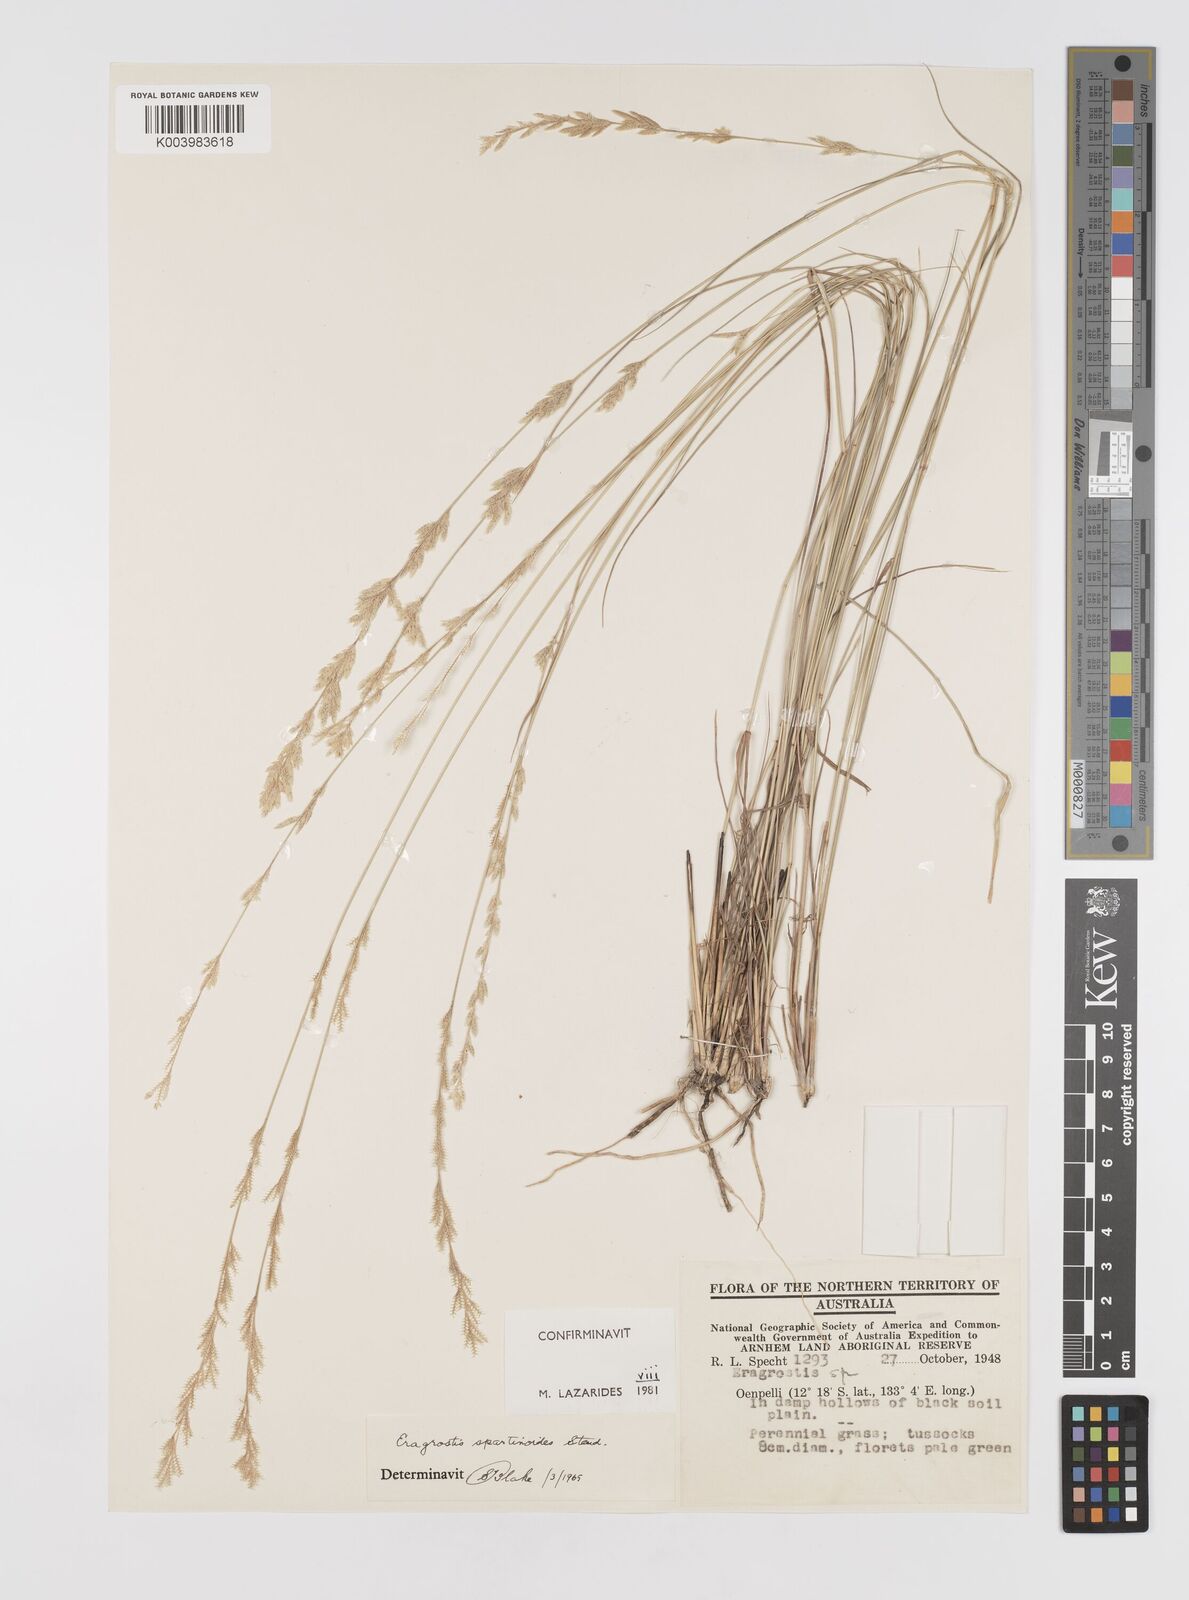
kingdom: Plantae
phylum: Tracheophyta
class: Liliopsida
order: Poales
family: Poaceae
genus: Eragrostis
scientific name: Eragrostis speciosa
